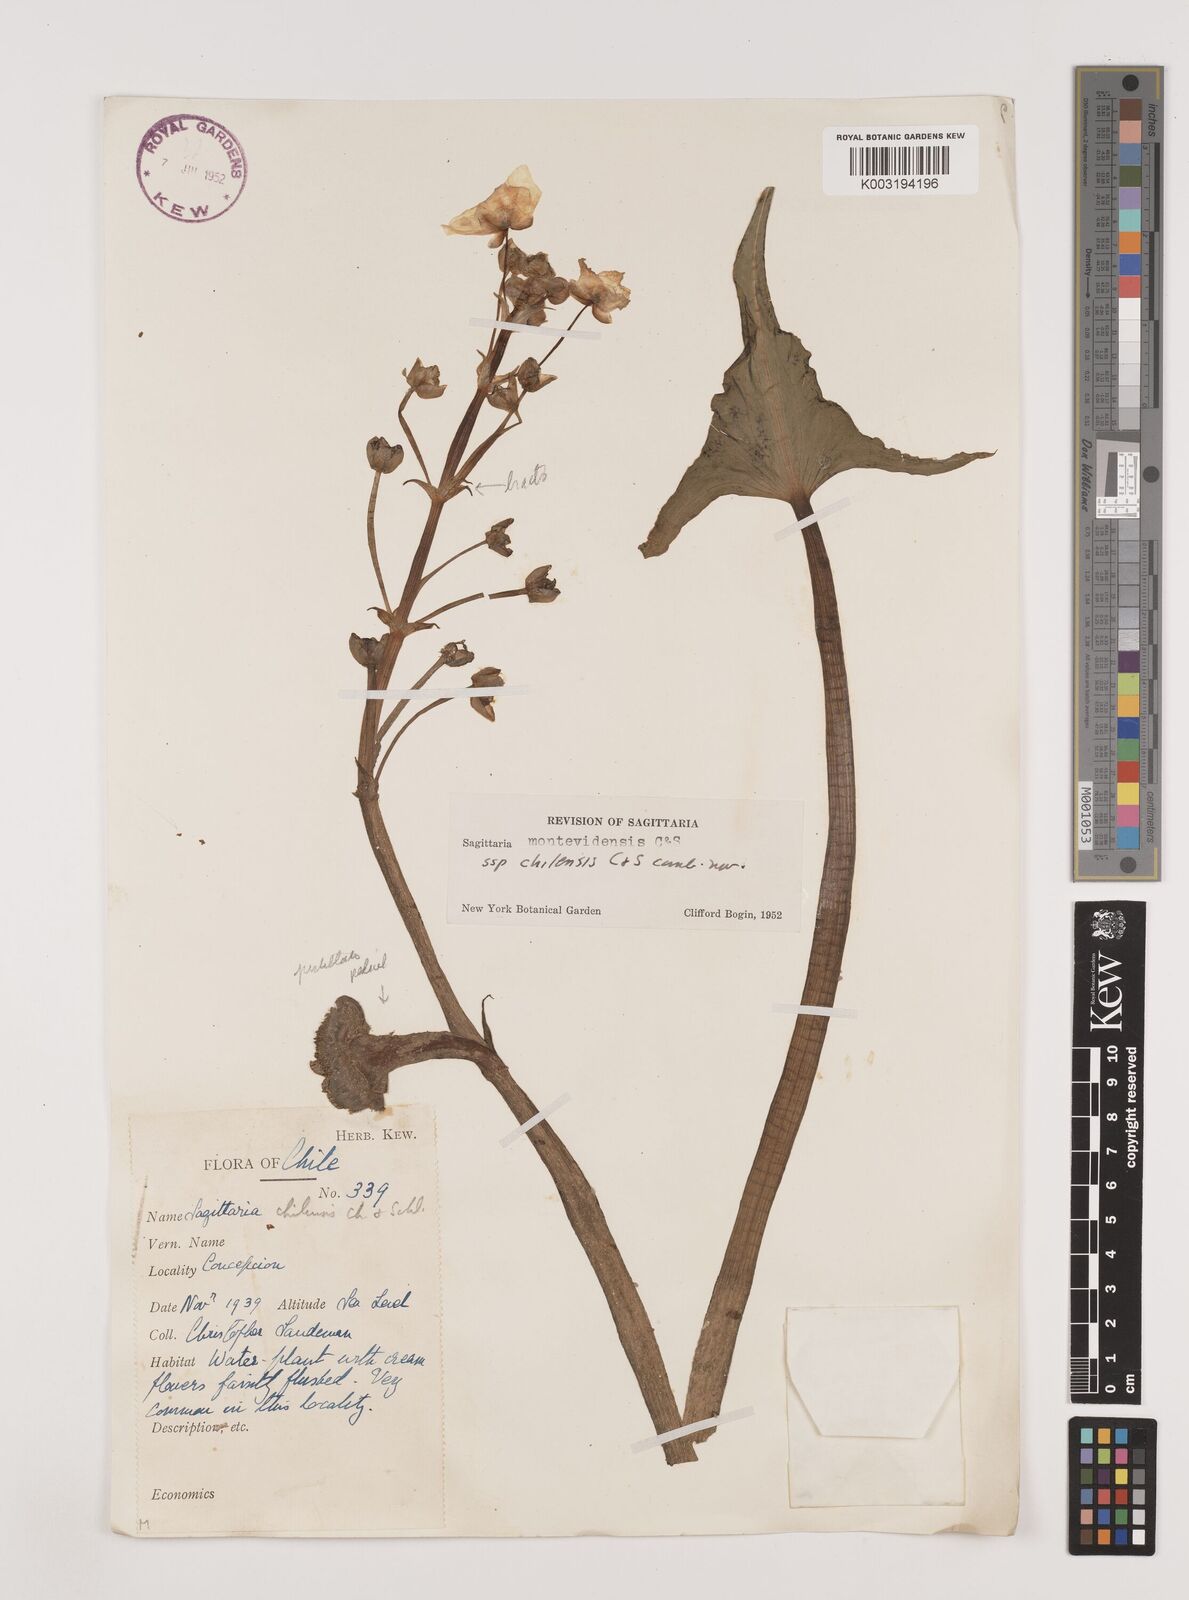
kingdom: Plantae
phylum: Tracheophyta
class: Liliopsida
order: Alismatales
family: Alismataceae
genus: Sagittaria
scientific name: Sagittaria montevidensis
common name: Giant arrowhead
